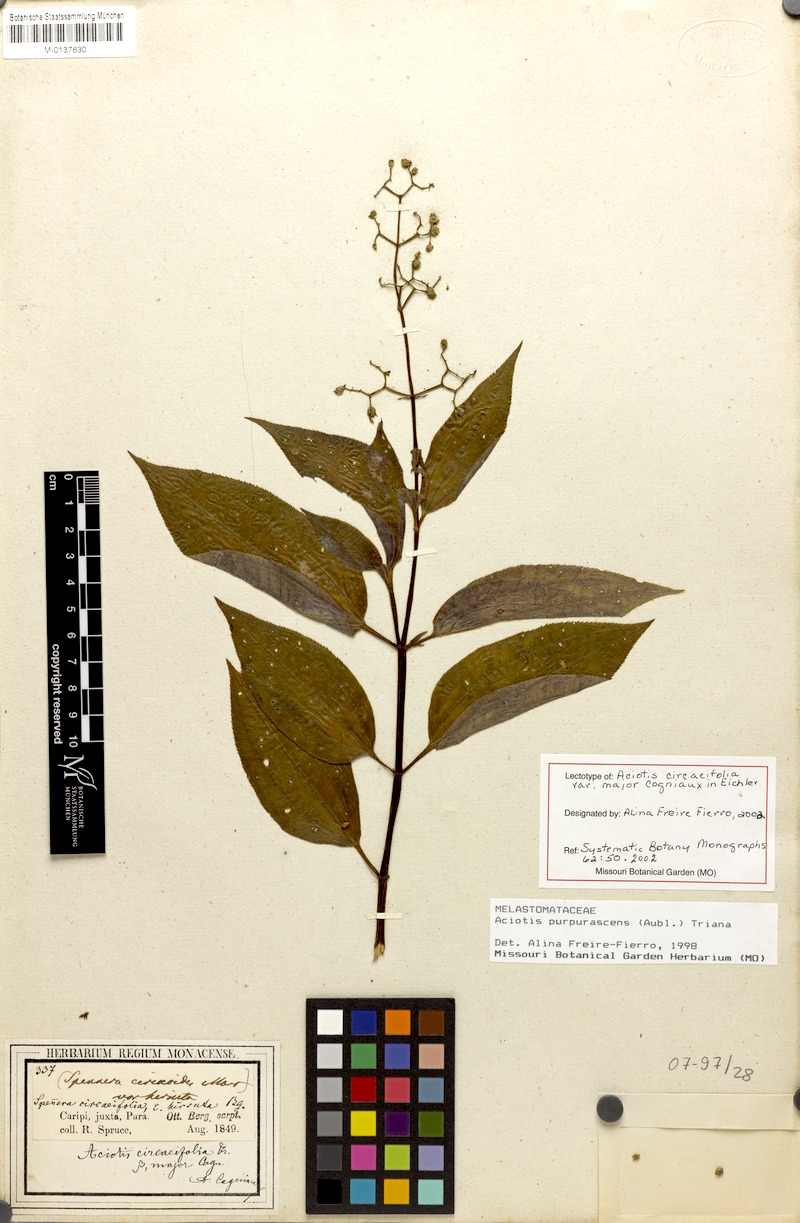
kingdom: Plantae
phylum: Tracheophyta
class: Magnoliopsida
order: Myrtales
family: Melastomataceae
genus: Aciotis
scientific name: Aciotis purpurascens
